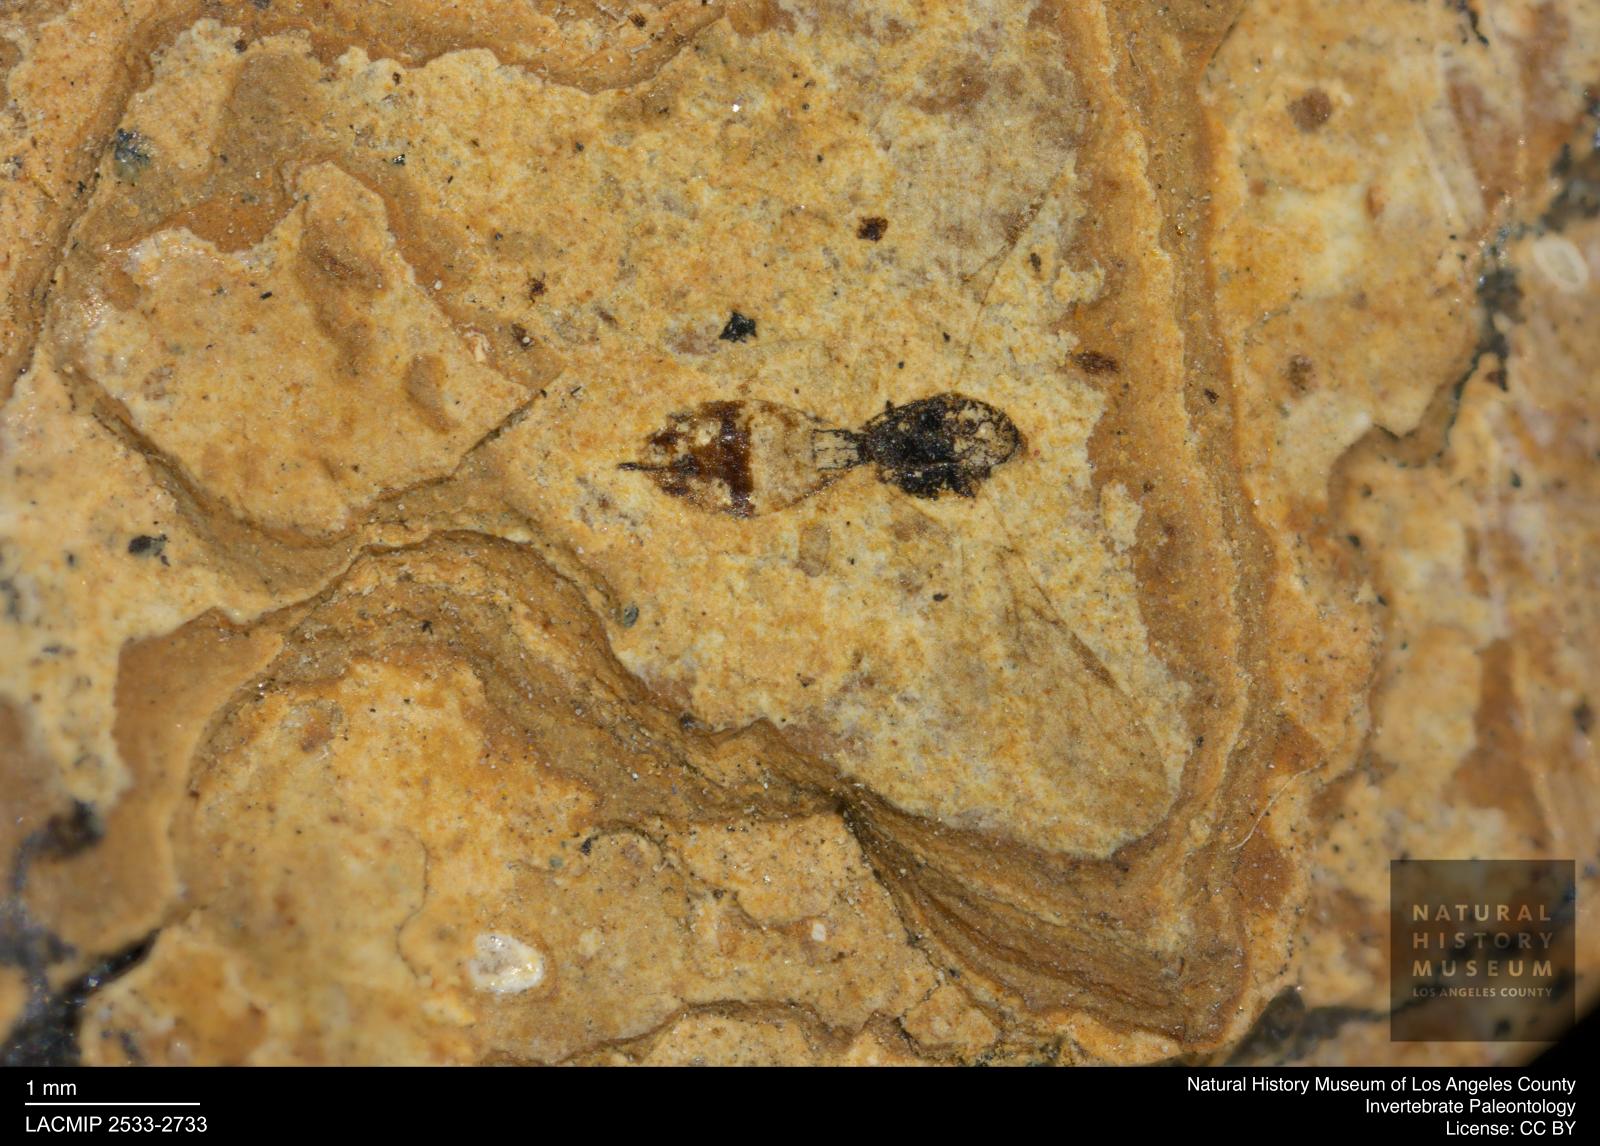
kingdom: Animalia
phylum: Arthropoda
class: Insecta
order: Hymenoptera
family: Braconidae
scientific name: Braconidae
